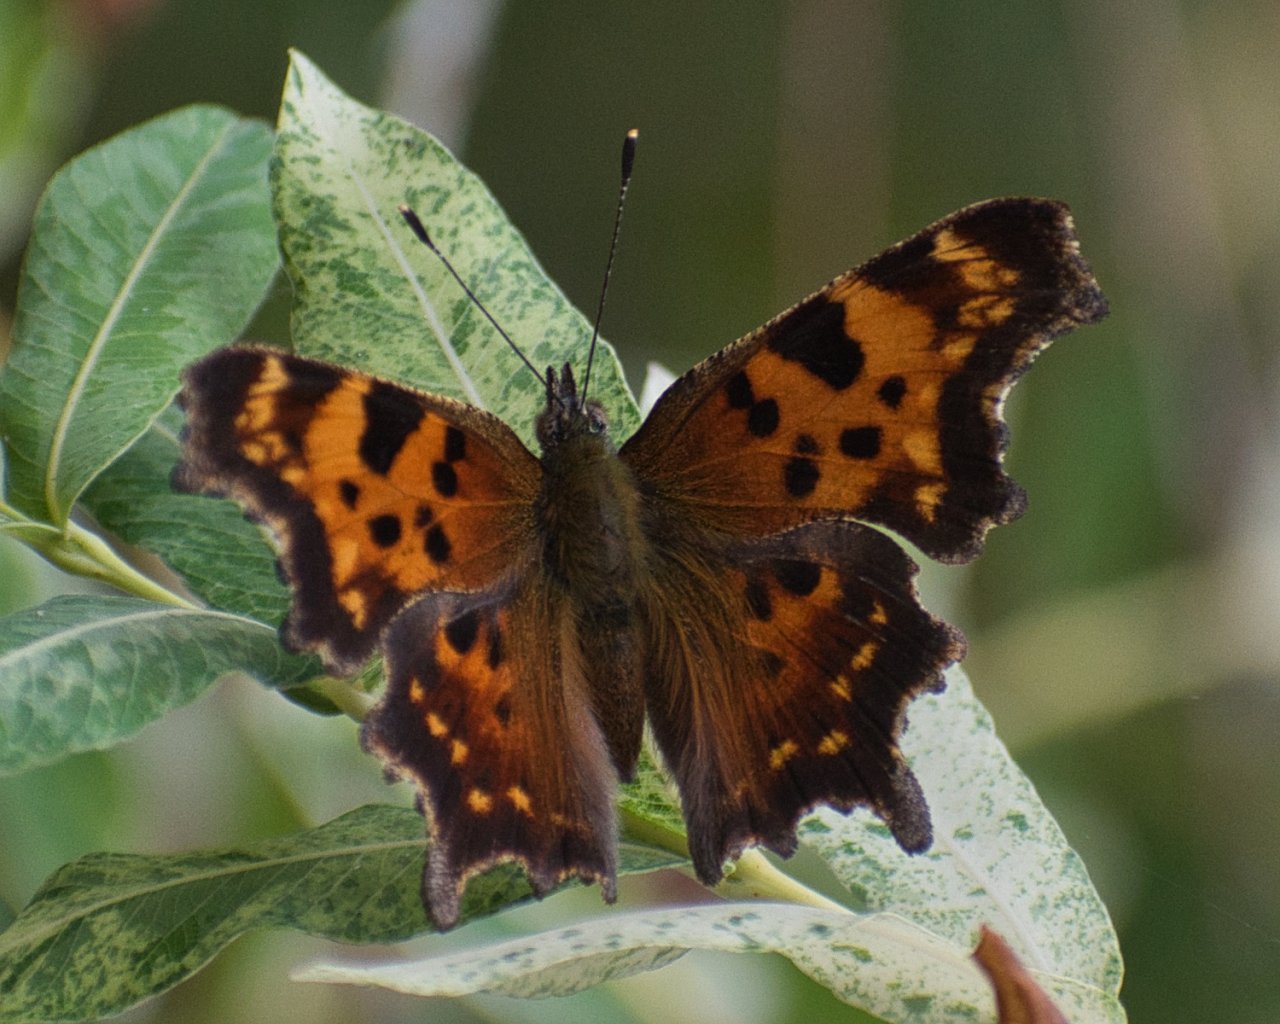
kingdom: Animalia
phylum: Arthropoda
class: Insecta
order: Lepidoptera
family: Nymphalidae
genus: Polygonia
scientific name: Polygonia faunus
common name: Green Comma
